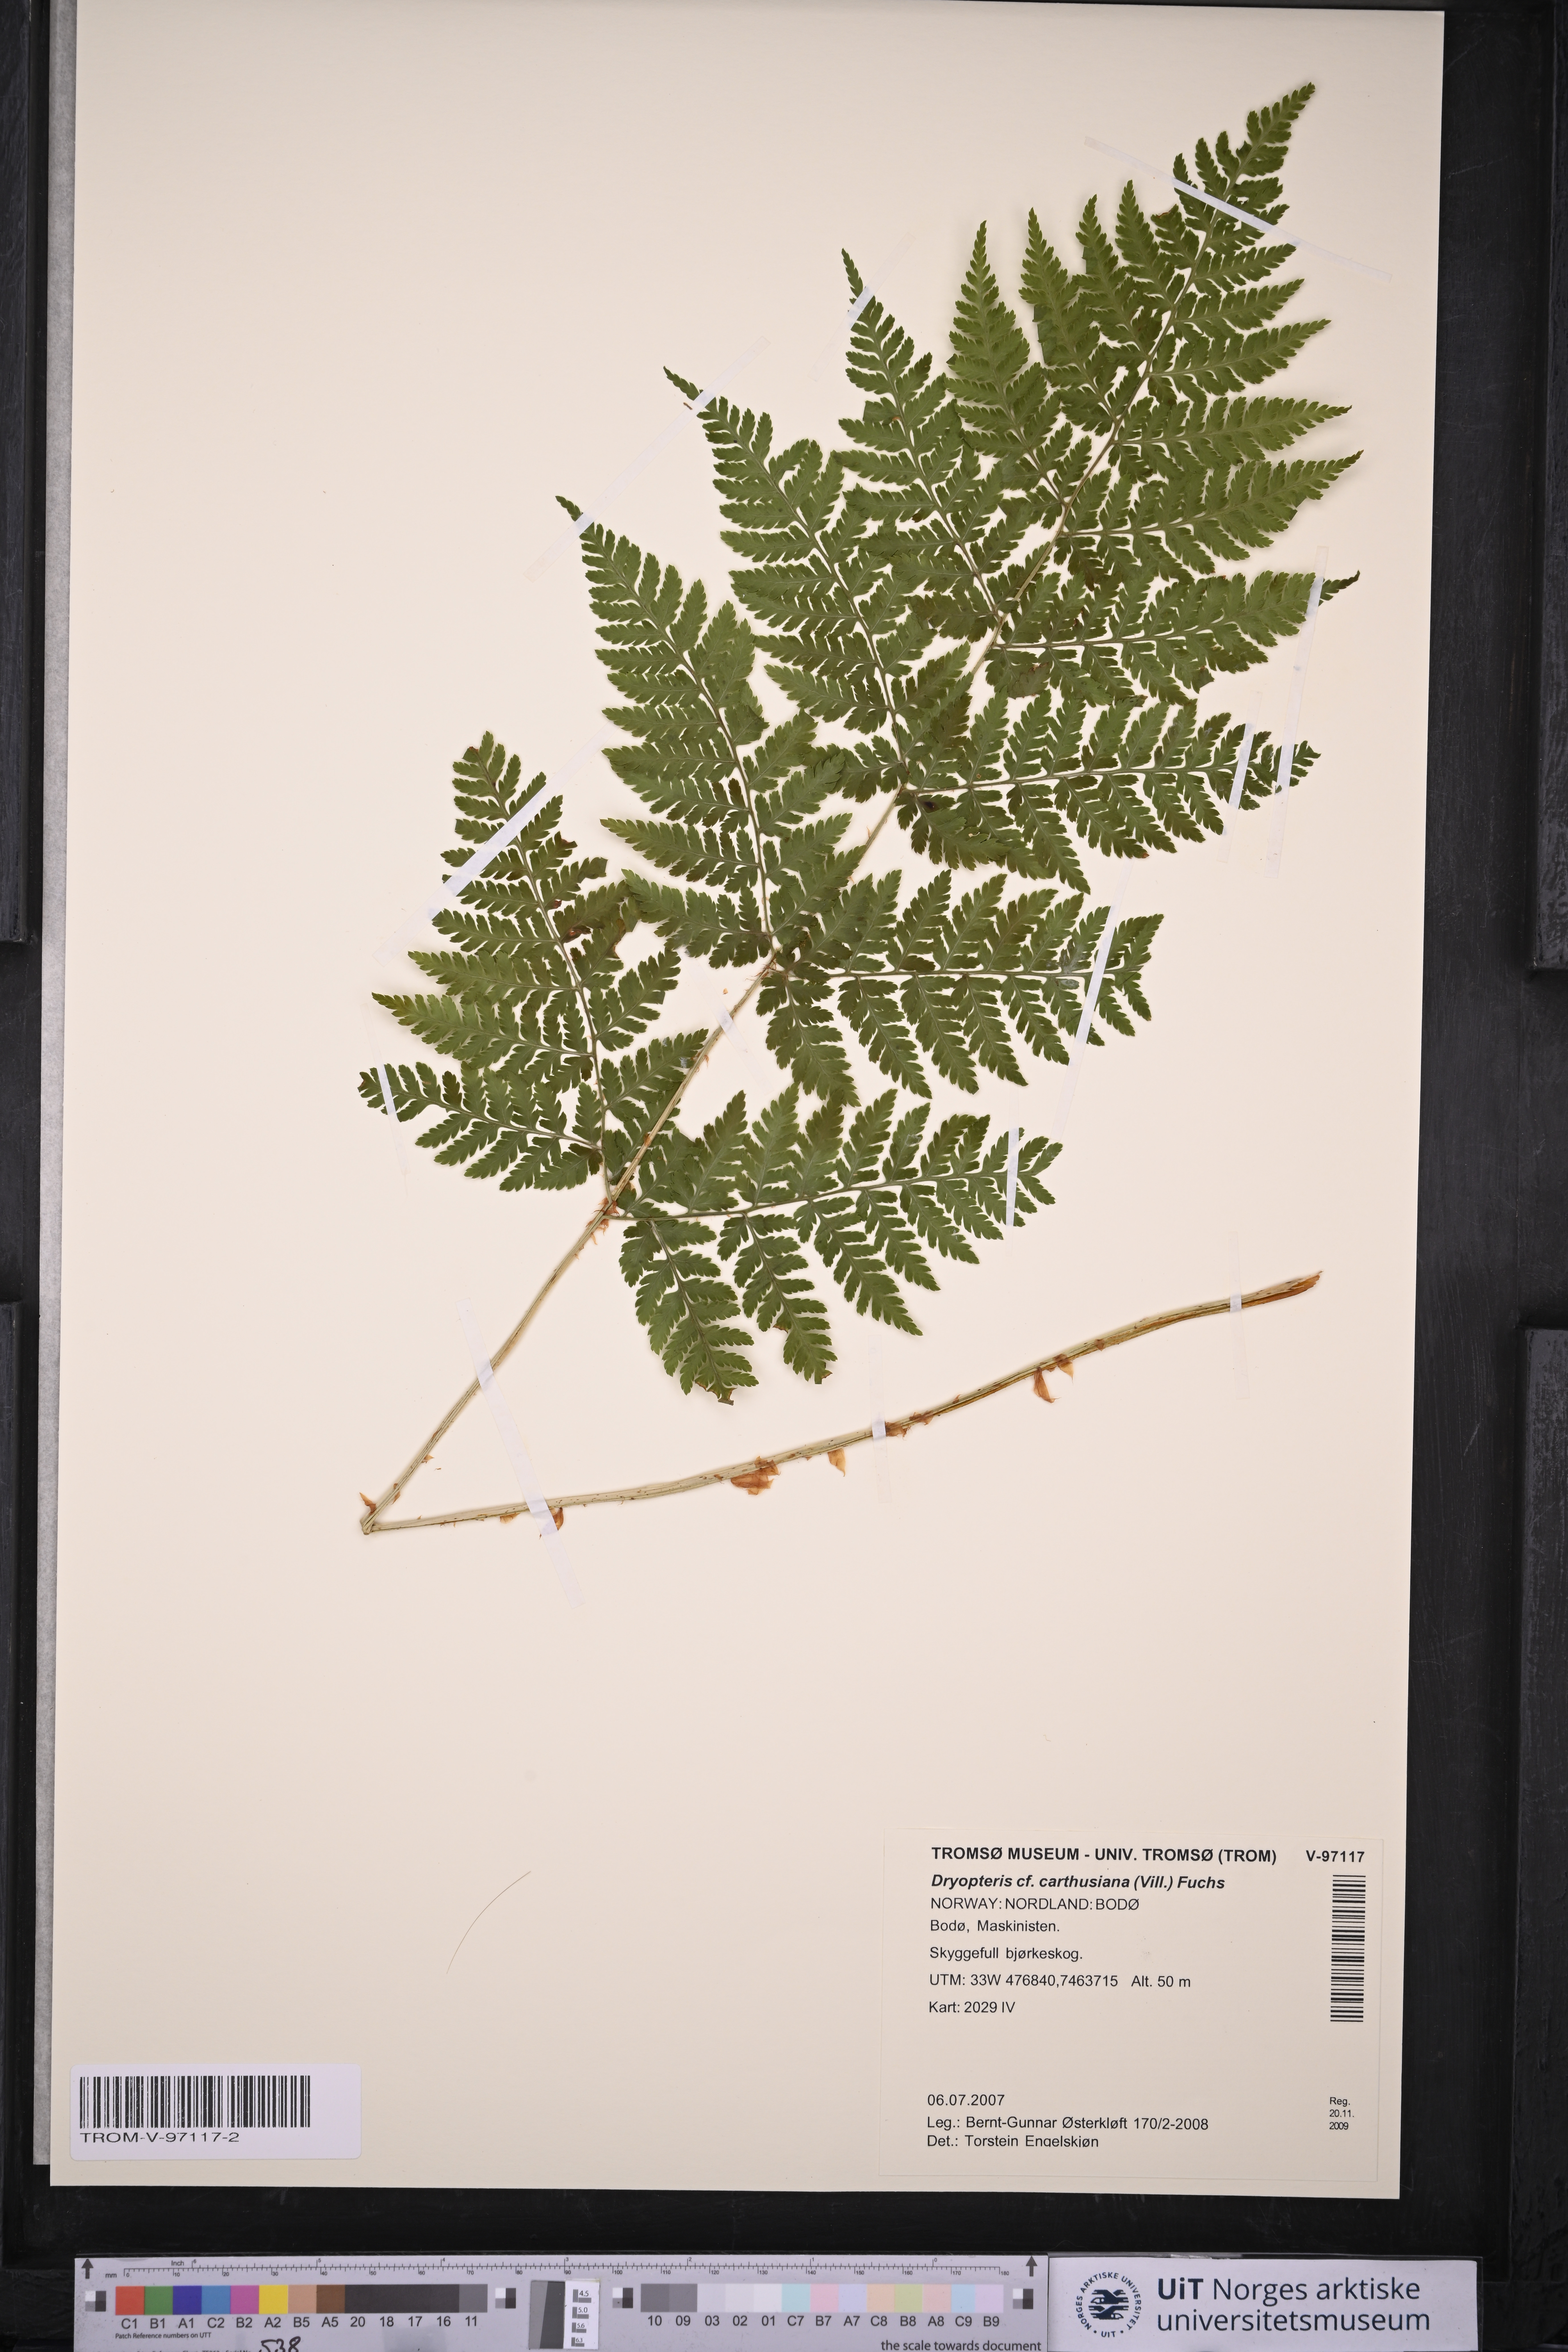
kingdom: Plantae
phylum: Tracheophyta
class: Polypodiopsida
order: Polypodiales
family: Dryopteridaceae
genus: Dryopteris
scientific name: Dryopteris carthusiana
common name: Narrow buckler-fern
